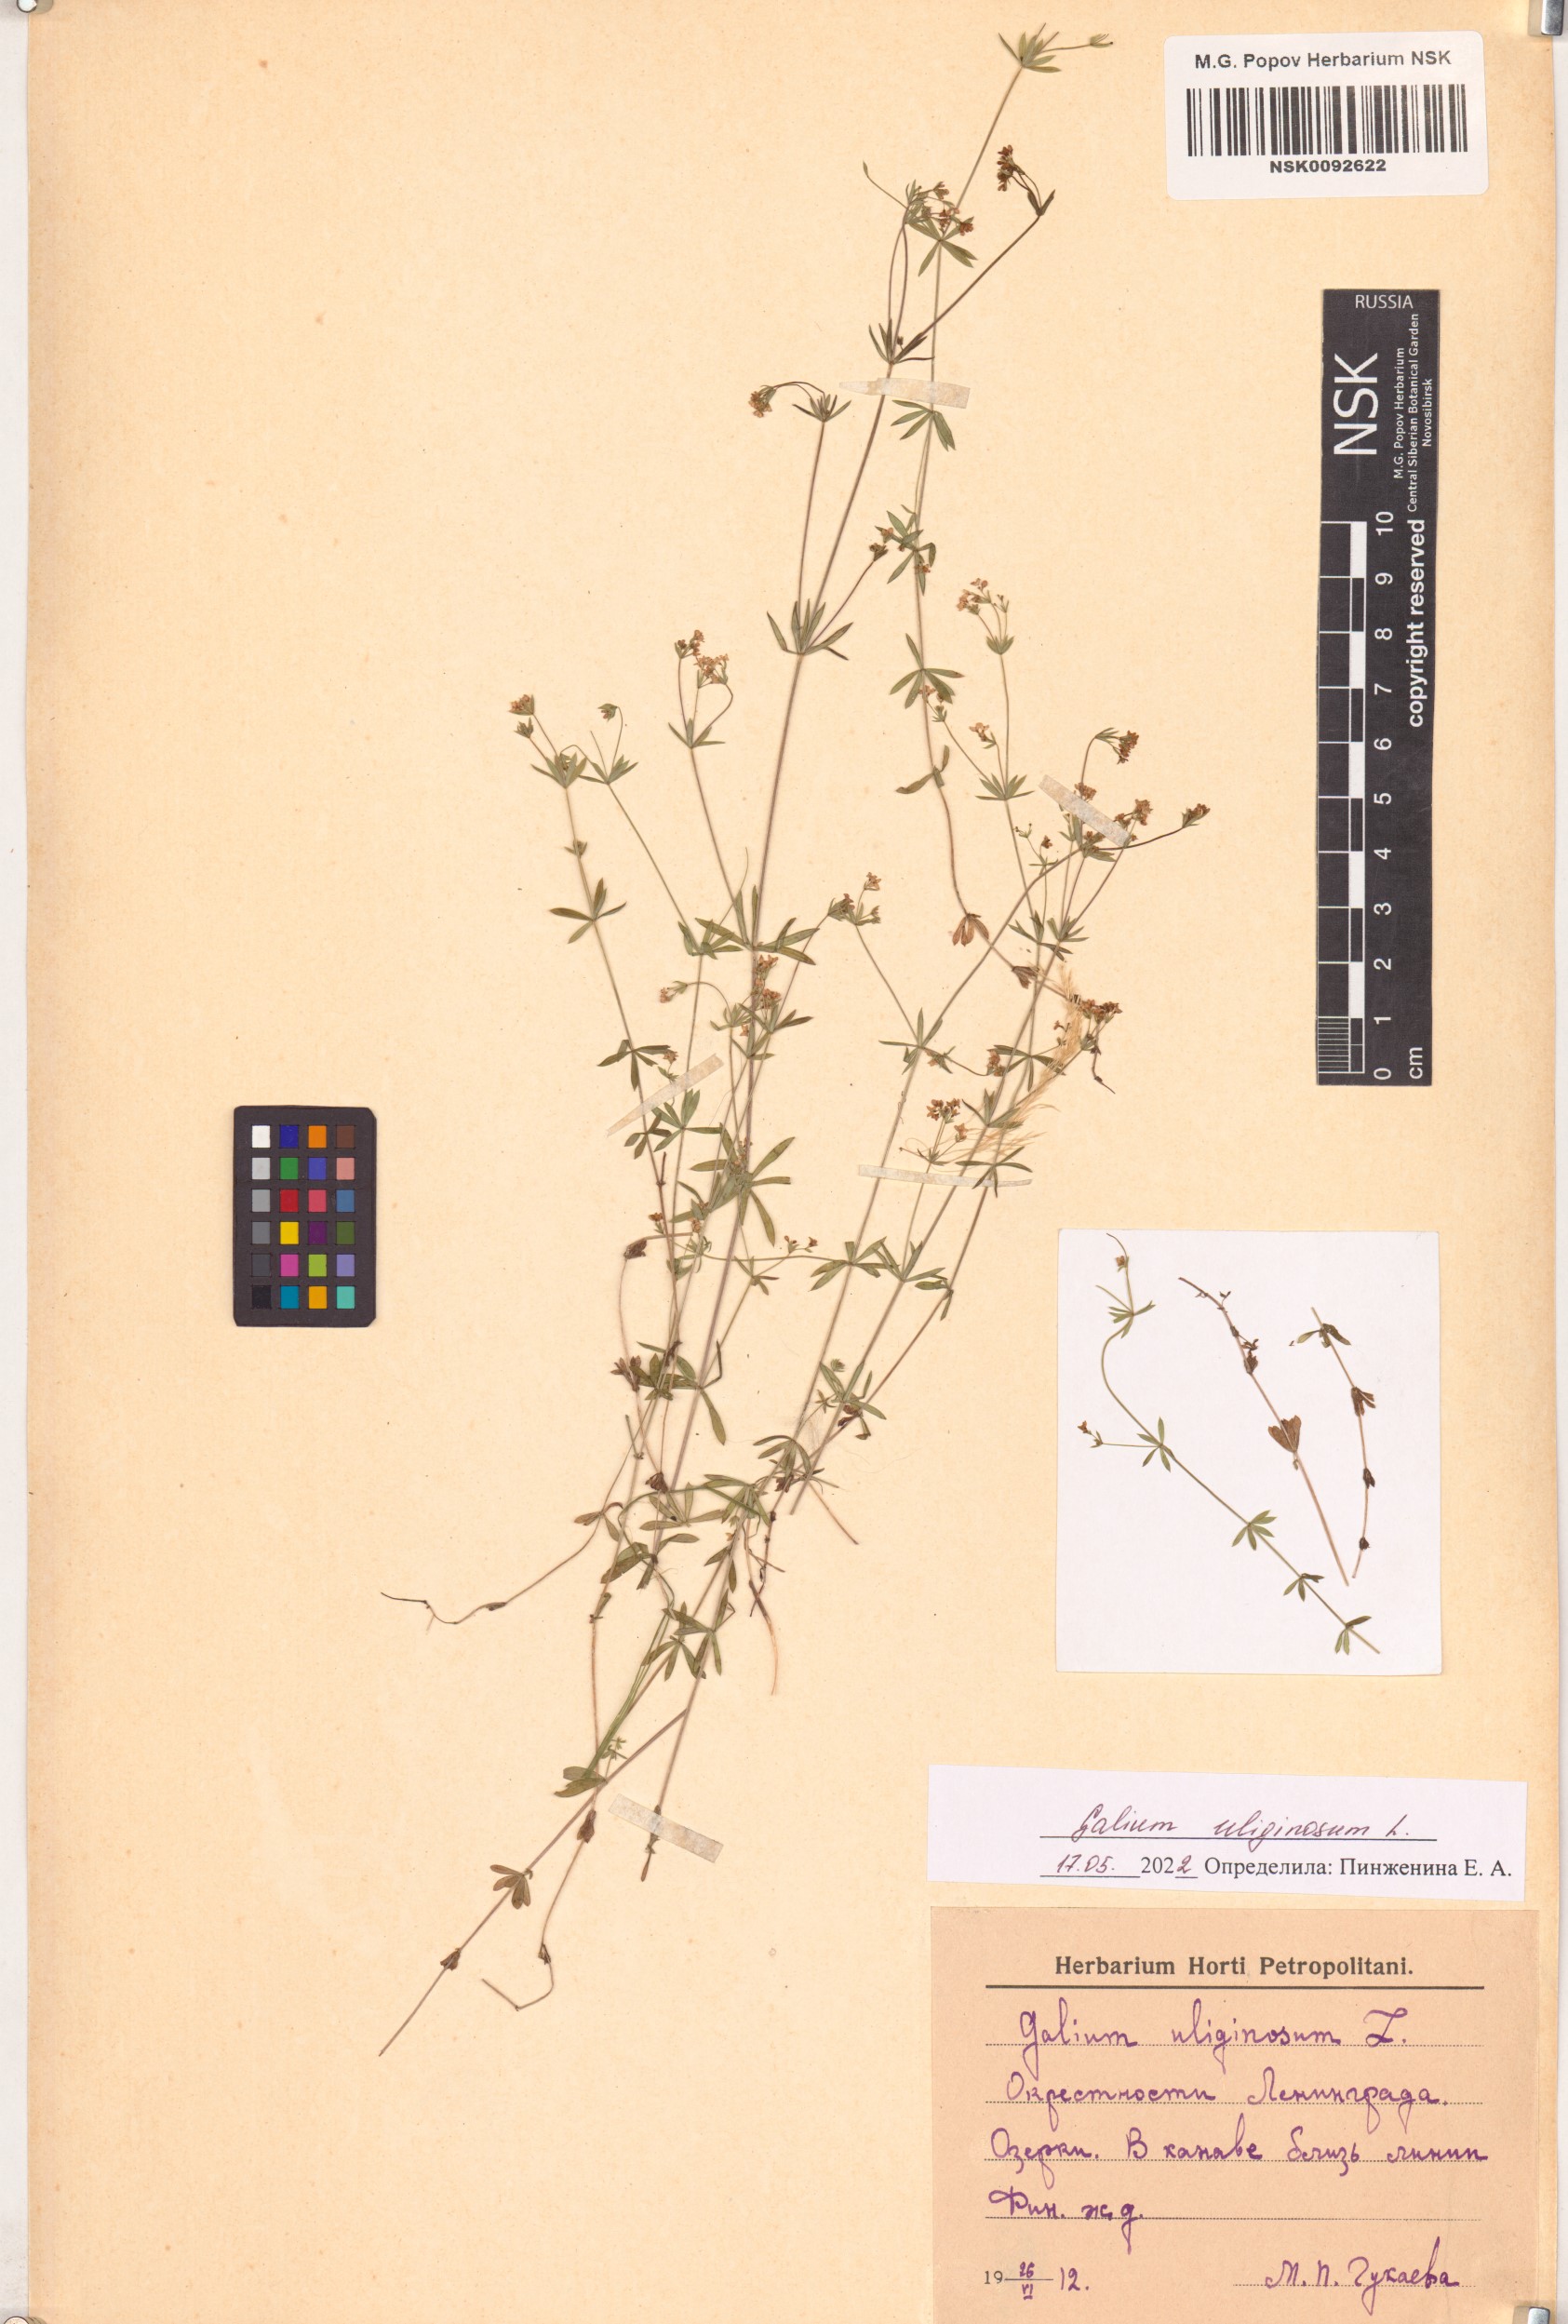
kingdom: Plantae
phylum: Tracheophyta
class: Magnoliopsida
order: Gentianales
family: Rubiaceae
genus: Galium
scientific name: Galium uliginosum
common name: Fen bedstraw
